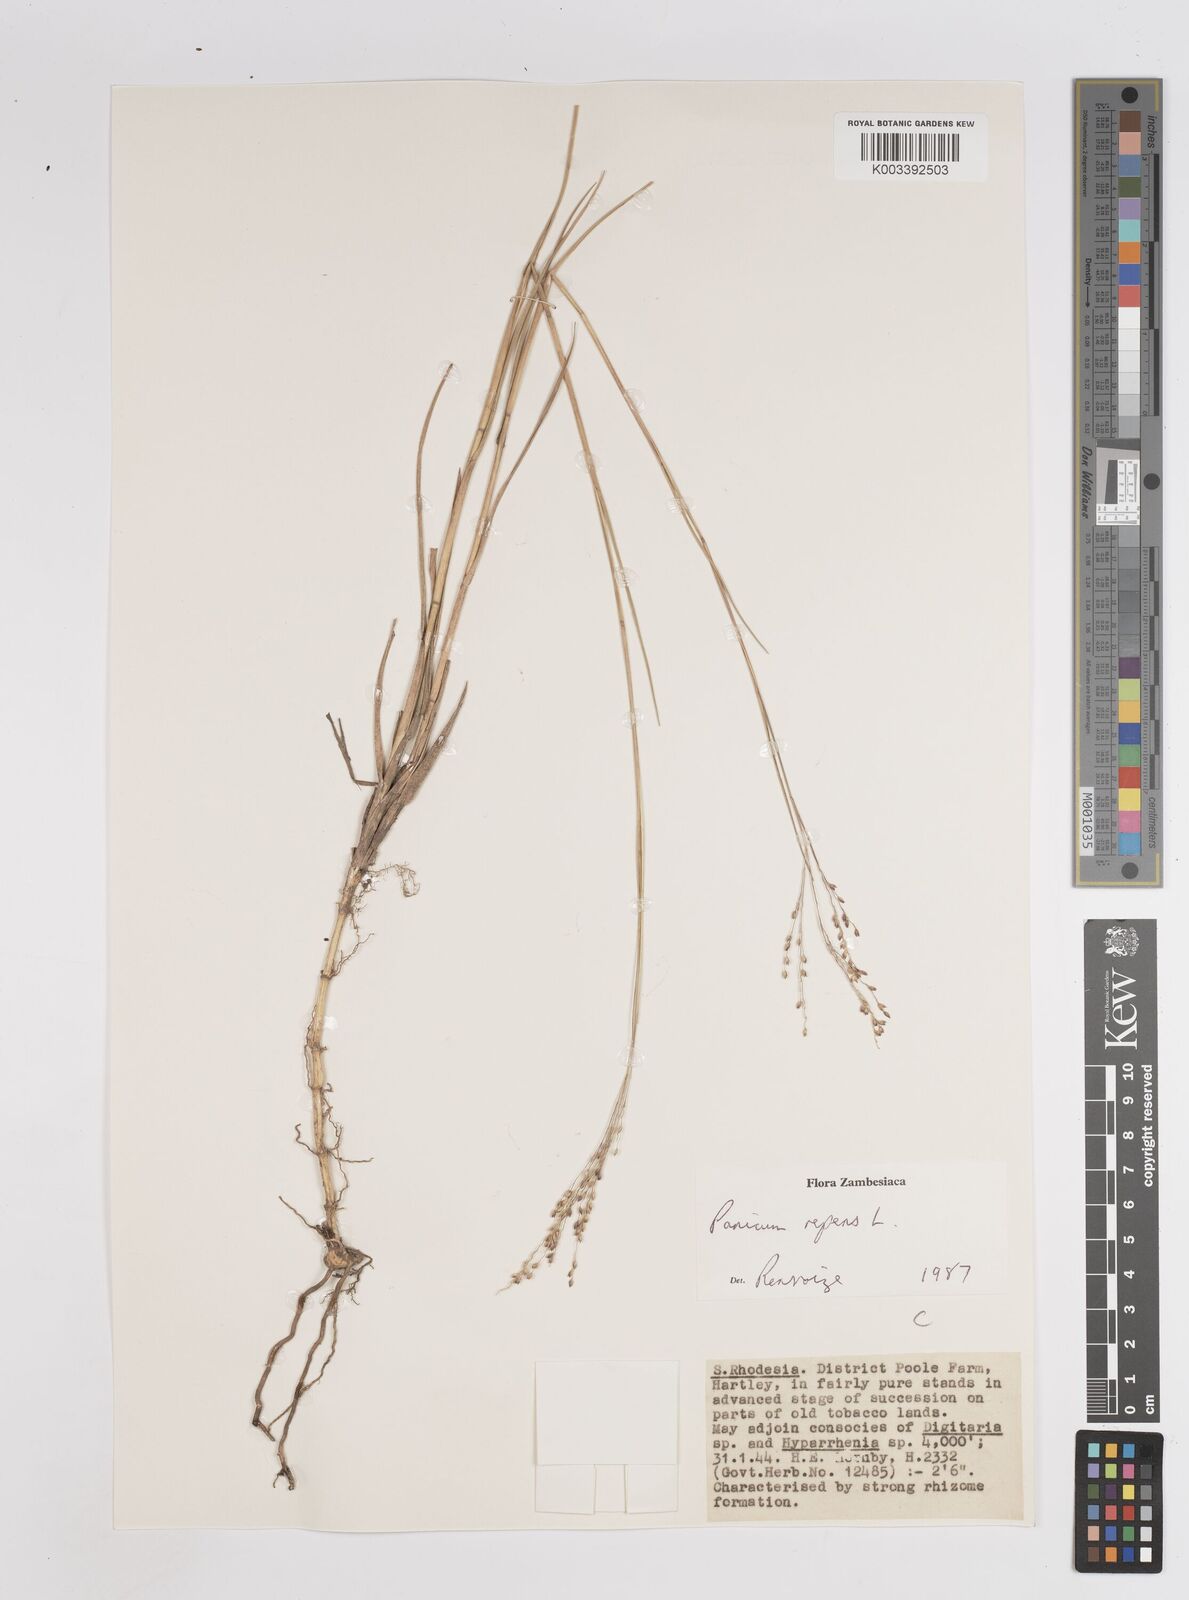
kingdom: Plantae
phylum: Tracheophyta
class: Liliopsida
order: Poales
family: Poaceae
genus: Panicum
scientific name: Panicum repens
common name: Torpedo grass
